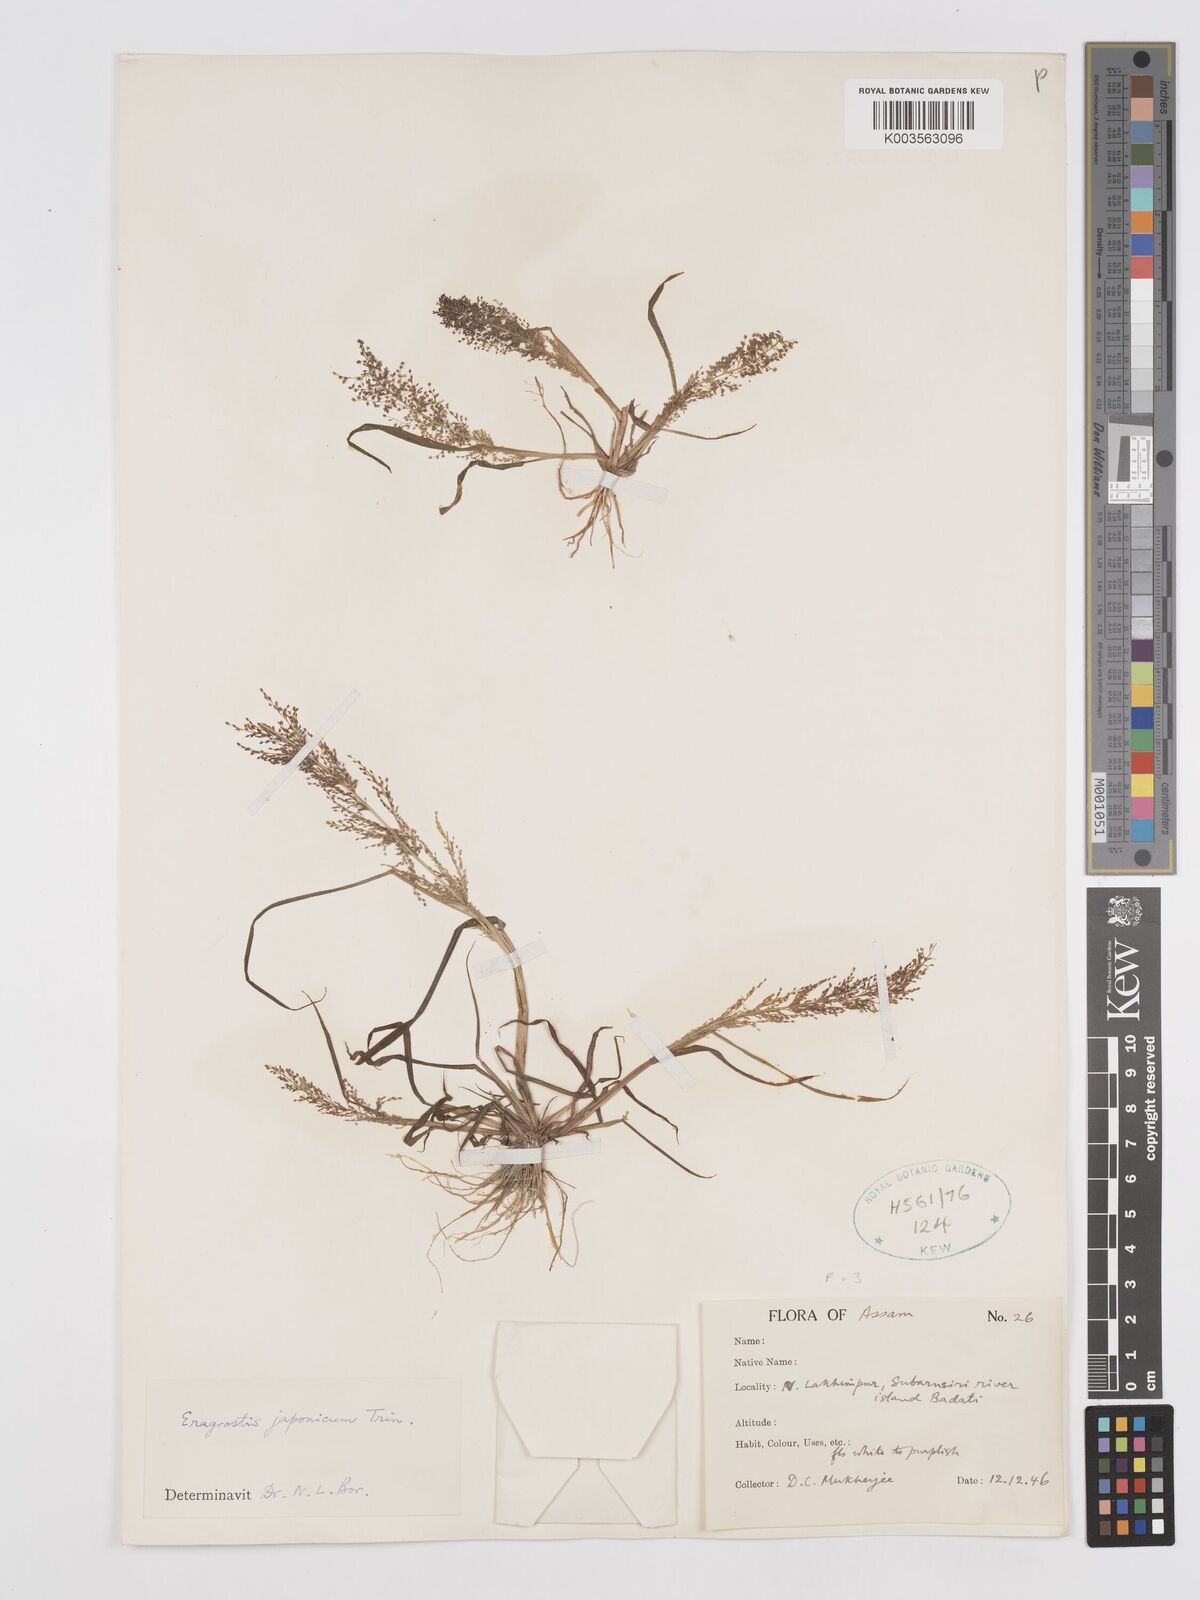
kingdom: Plantae
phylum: Tracheophyta
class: Liliopsida
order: Poales
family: Poaceae
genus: Eragrostis
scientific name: Eragrostis japonica
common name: Pond lovegrass
